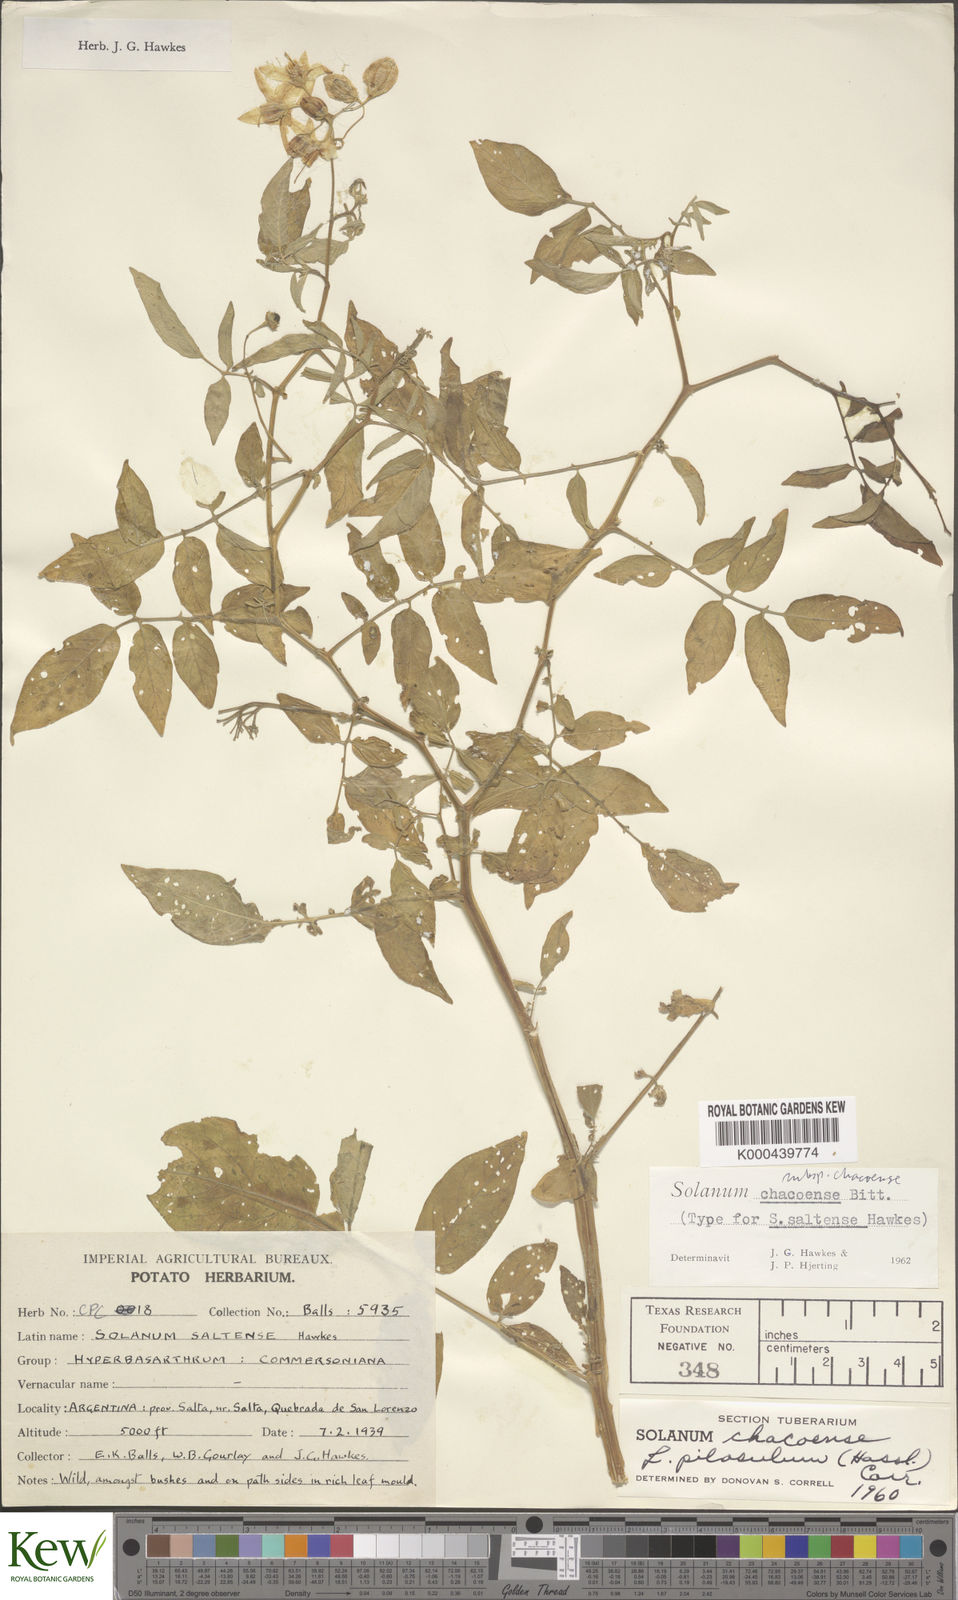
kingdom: Plantae
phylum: Tracheophyta
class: Magnoliopsida
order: Solanales
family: Solanaceae
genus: Solanum
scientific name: Solanum chacoense
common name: Chaco potato
